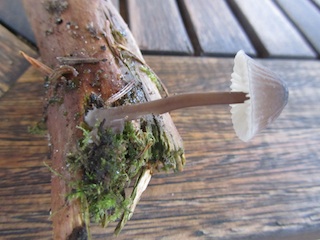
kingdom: Fungi
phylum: Basidiomycota
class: Agaricomycetes
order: Agaricales
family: Mycenaceae
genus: Mycena
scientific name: Mycena galopus
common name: hvidmælket huesvamp
